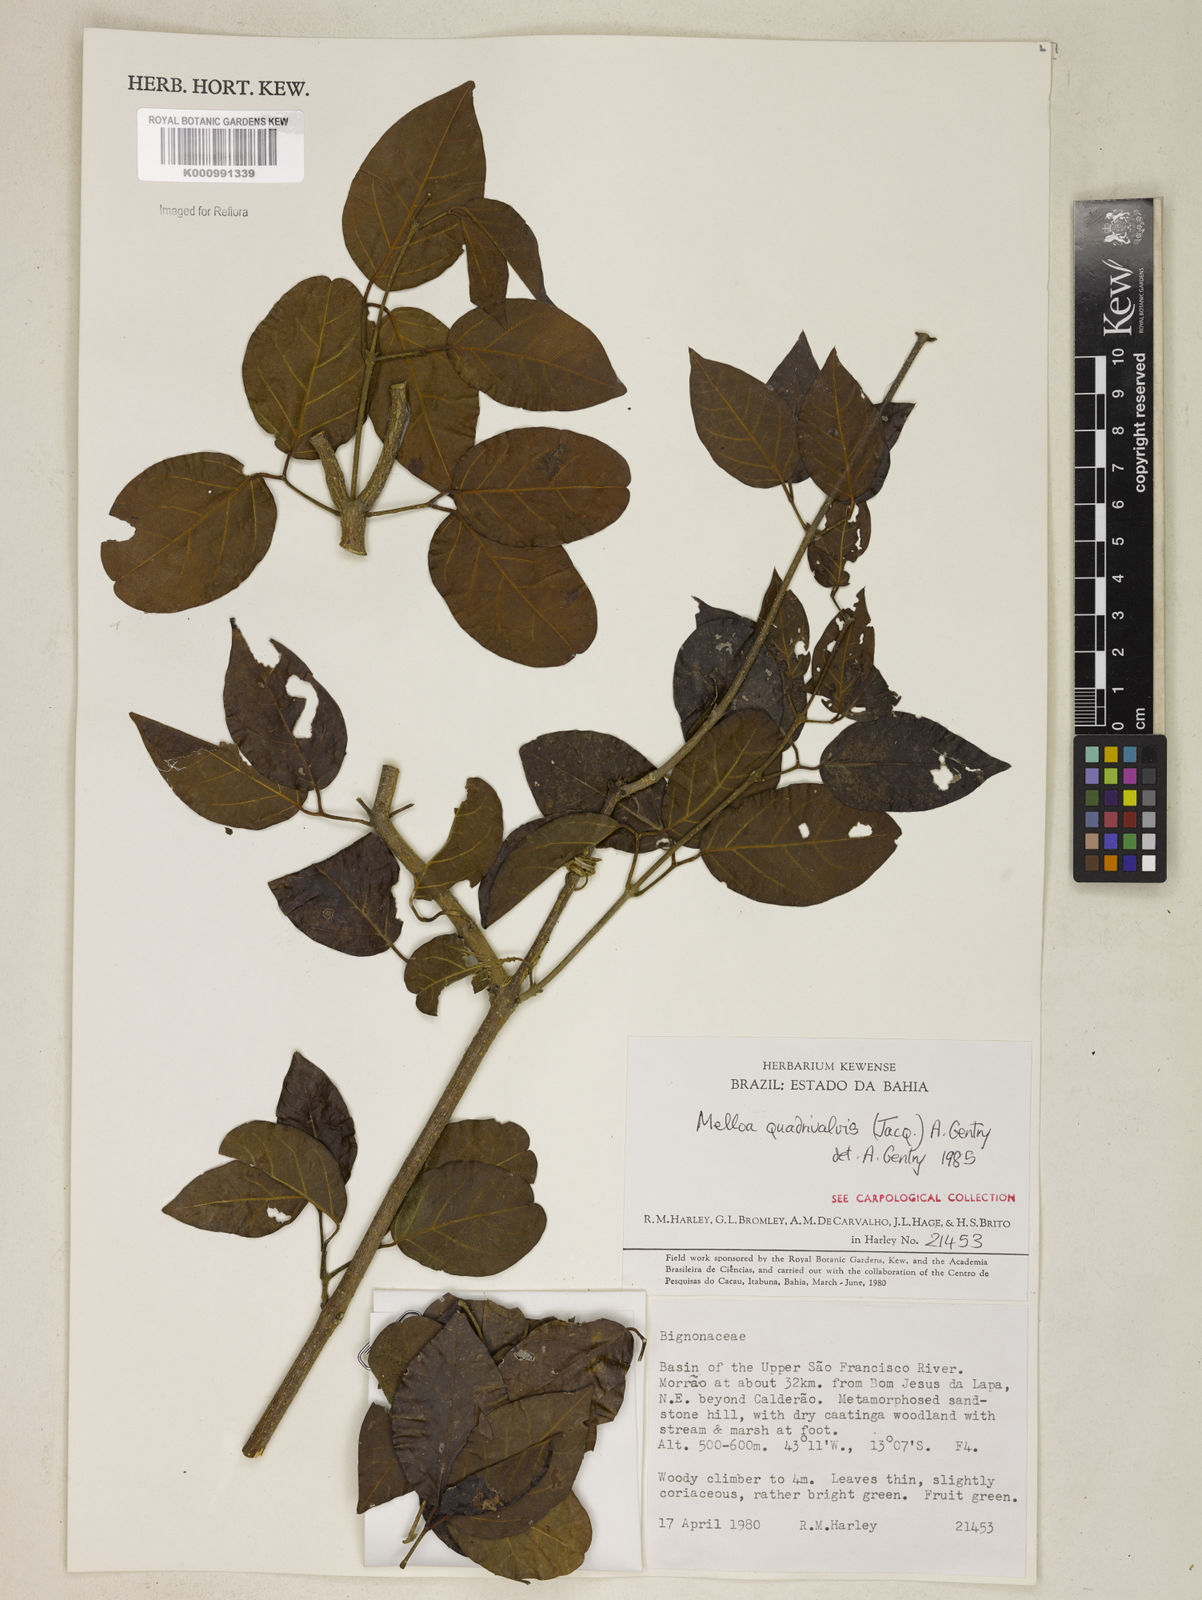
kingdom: Plantae
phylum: Tracheophyta
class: Magnoliopsida
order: Lamiales
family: Bignoniaceae
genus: Dolichandra
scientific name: Dolichandra quadrivalvis
